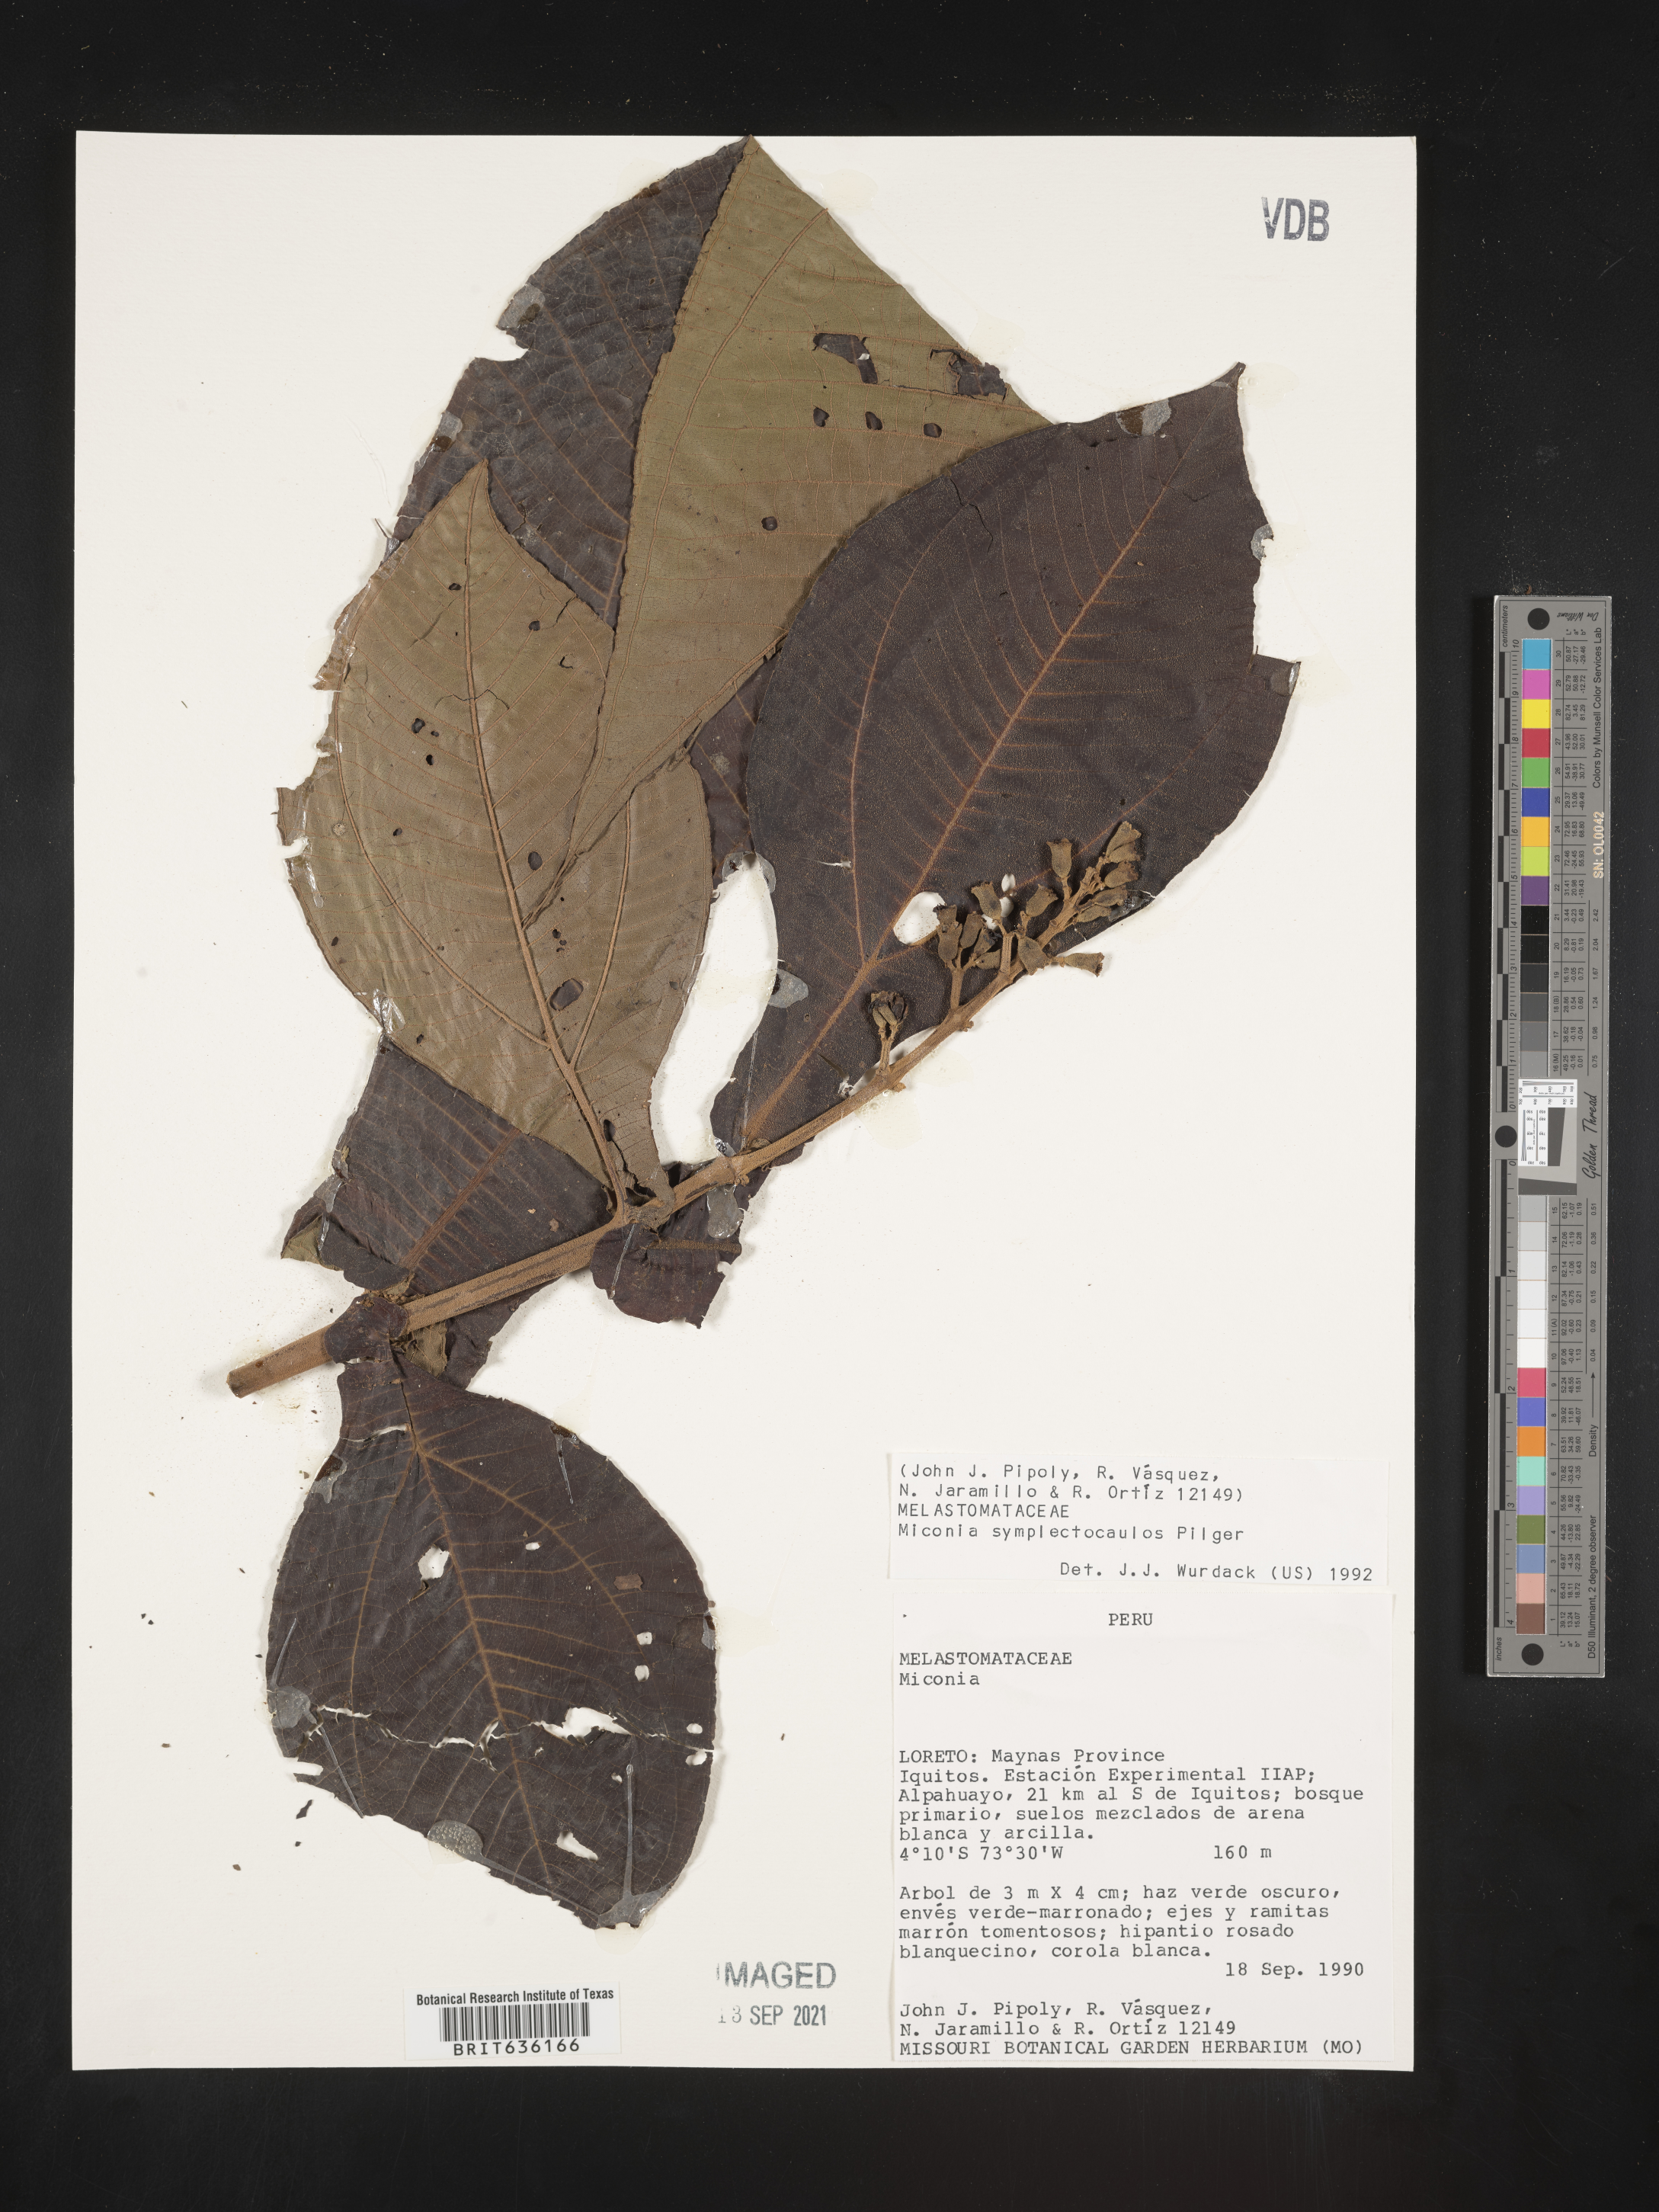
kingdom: Plantae
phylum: Tracheophyta
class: Magnoliopsida
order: Myrtales
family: Melastomataceae
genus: Miconia
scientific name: Miconia
